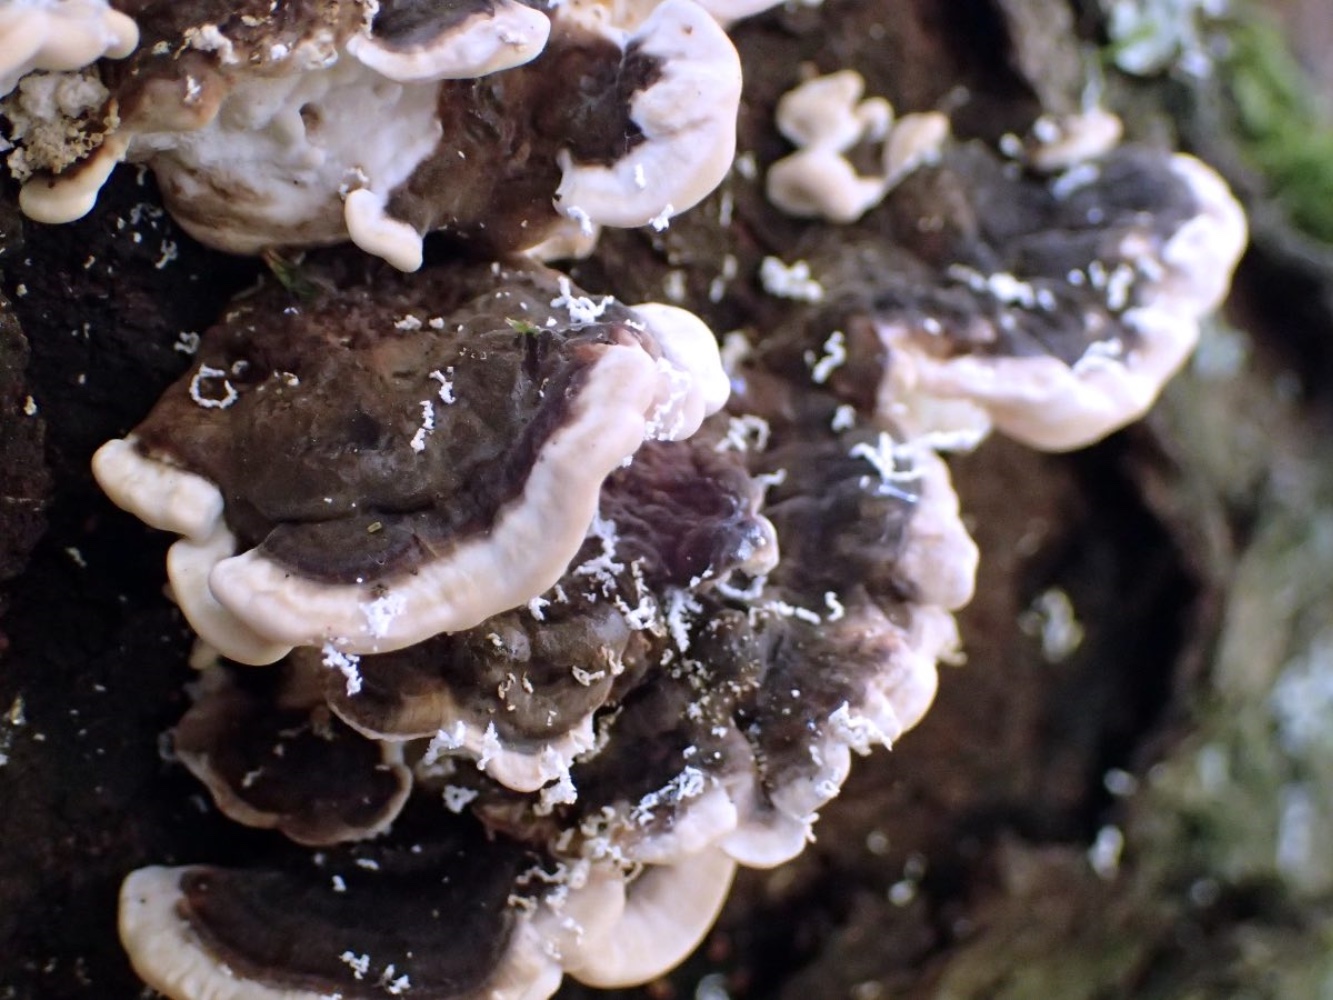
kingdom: Fungi
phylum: Basidiomycota
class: Agaricomycetes
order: Polyporales
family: Polyporaceae
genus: Trametes
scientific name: Trametes versicolor
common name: broget læderporesvamp
